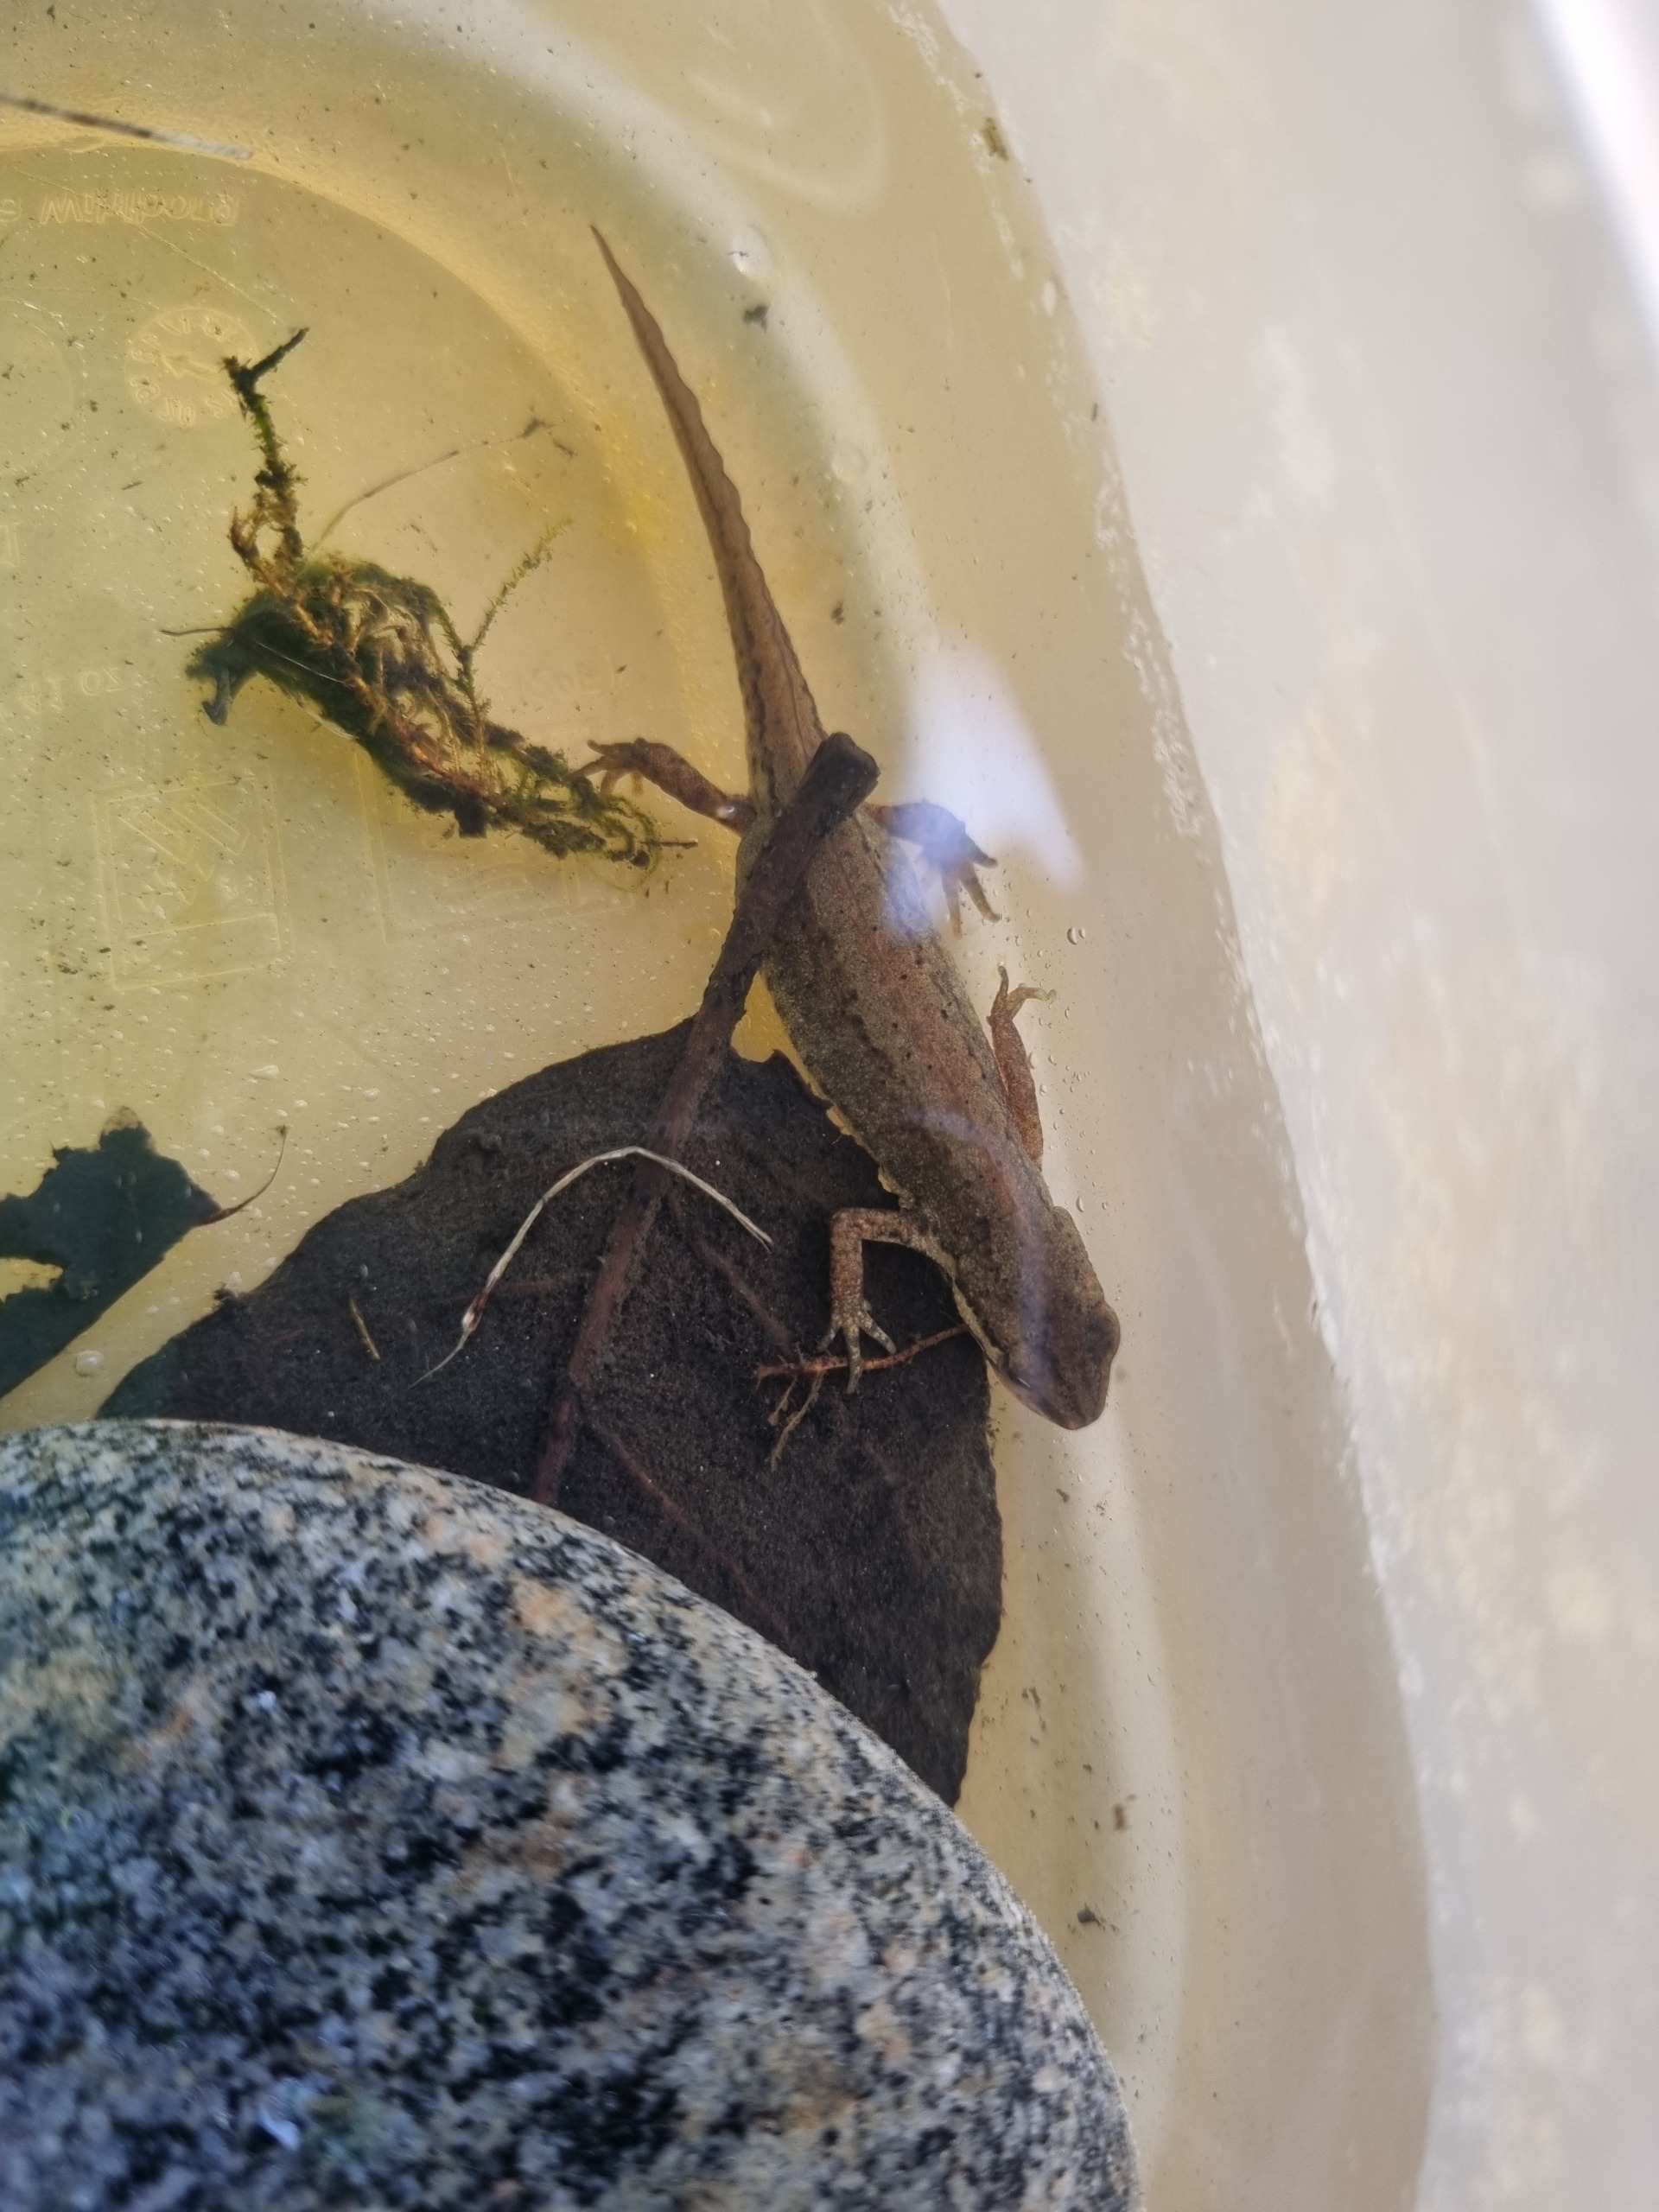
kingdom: Animalia
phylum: Chordata
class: Amphibia
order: Caudata
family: Salamandridae
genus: Lissotriton
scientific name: Lissotriton vulgaris
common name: Lille vandsalamander
